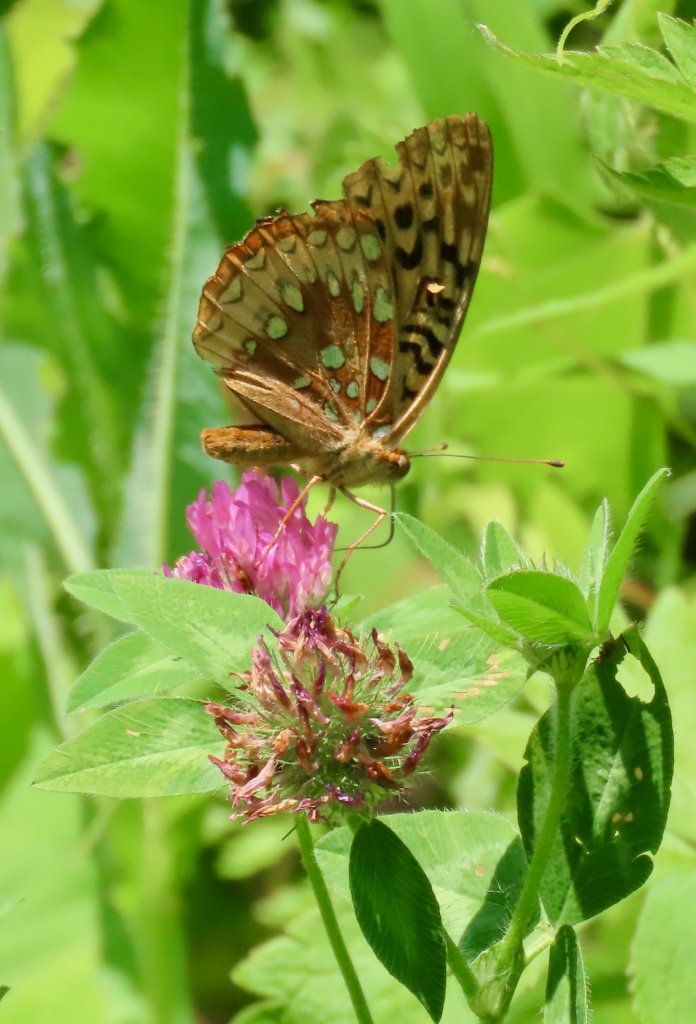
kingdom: Animalia
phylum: Arthropoda
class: Insecta
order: Lepidoptera
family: Nymphalidae
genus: Speyeria
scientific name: Speyeria cybele
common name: Great Spangled Fritillary
